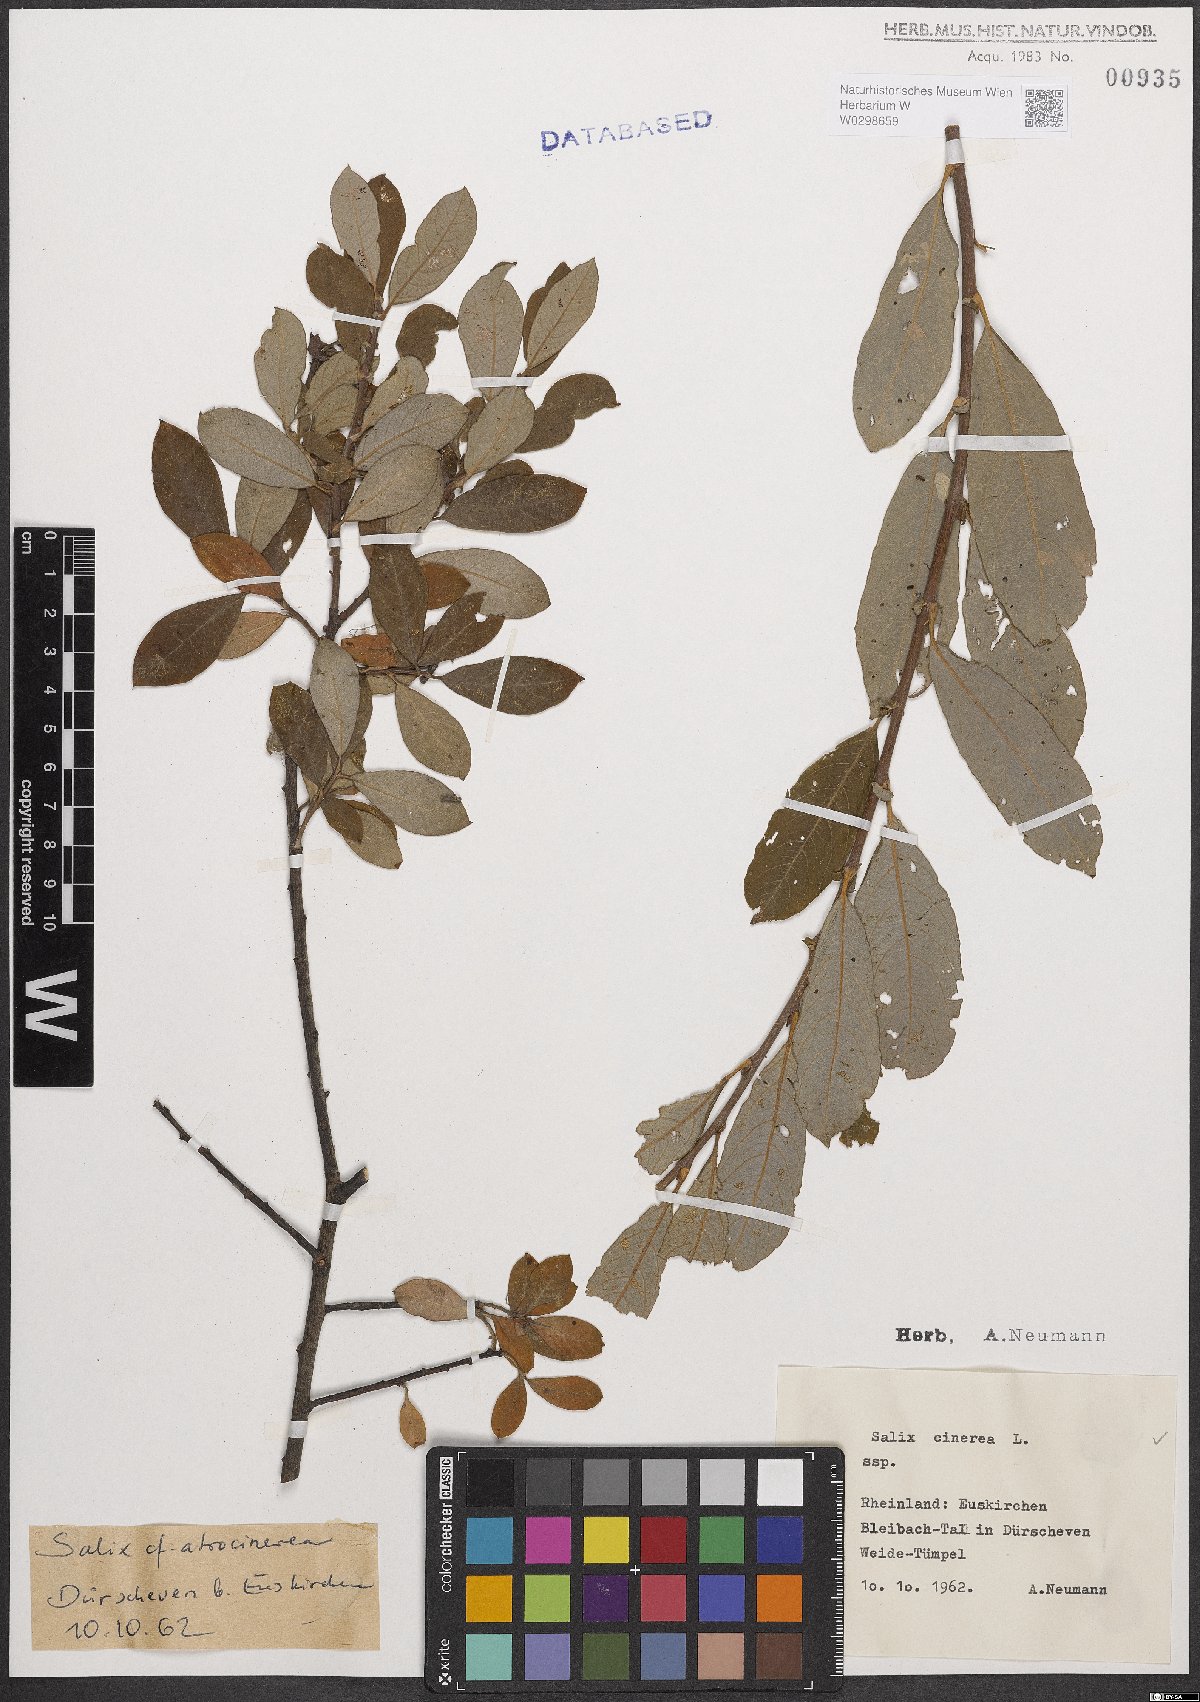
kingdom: Plantae
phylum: Tracheophyta
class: Magnoliopsida
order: Malpighiales
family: Salicaceae
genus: Salix
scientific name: Salix cinerea
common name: Common sallow
